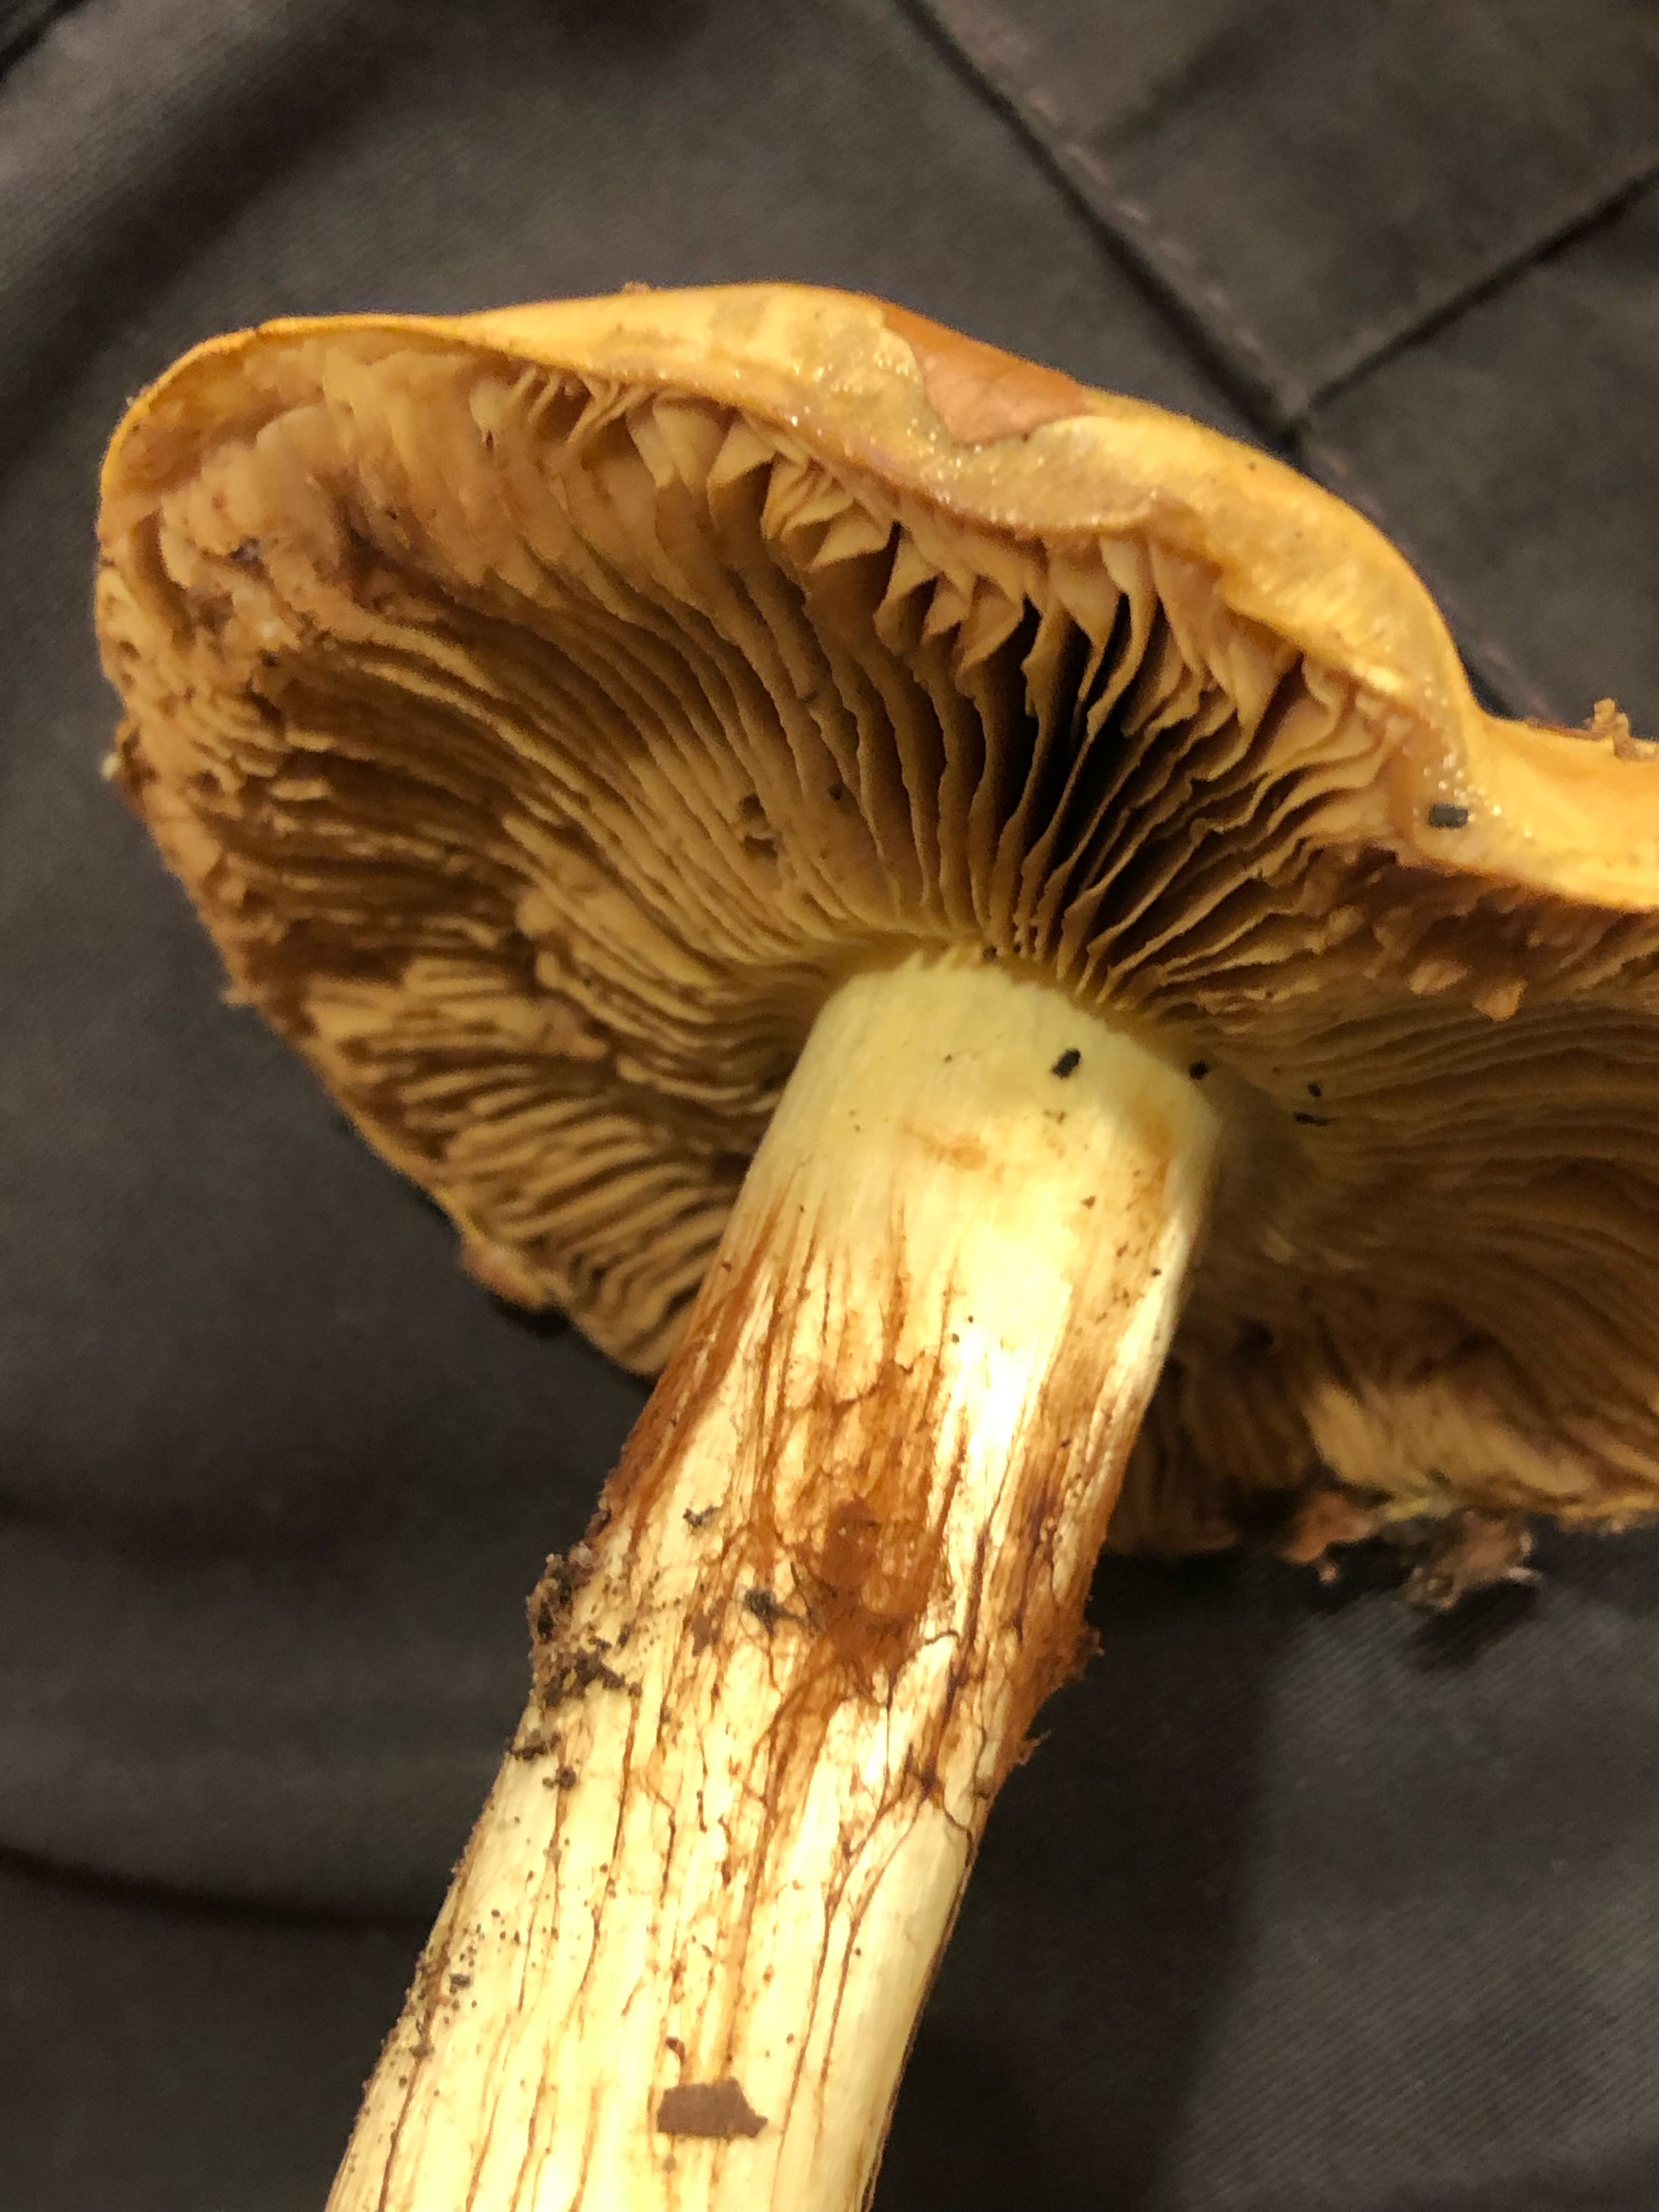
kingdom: Fungi
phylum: Basidiomycota
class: Agaricomycetes
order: Agaricales
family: Cortinariaceae
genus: Calonarius
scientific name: Calonarius elegantissimus
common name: orangegylden slørhat
